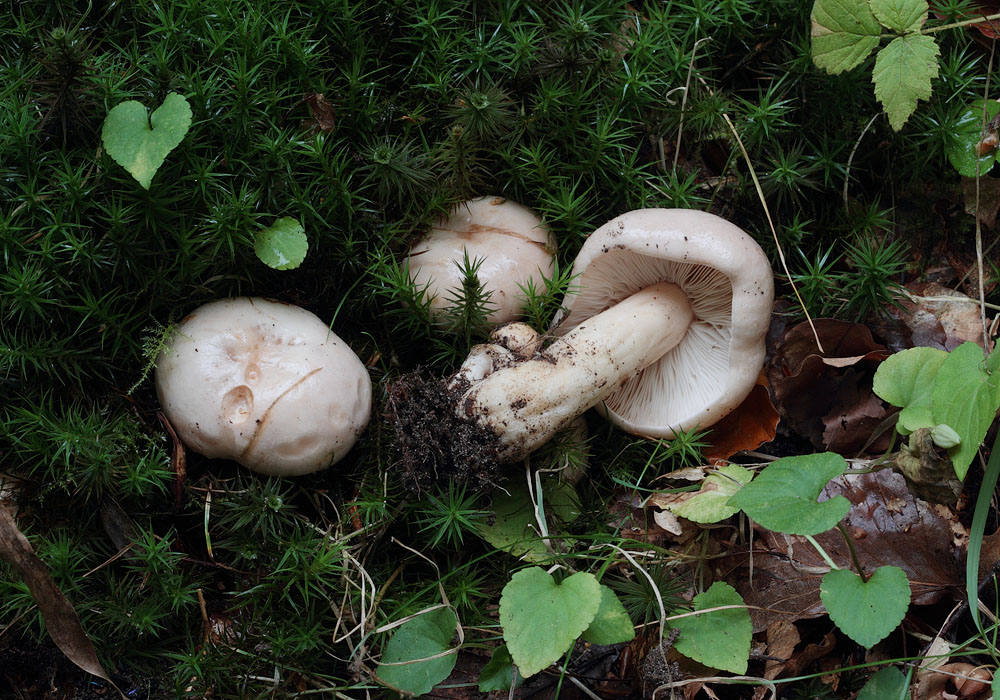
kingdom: Fungi
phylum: Basidiomycota
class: Agaricomycetes
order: Russulales
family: Russulaceae
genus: Lactarius
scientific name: Lactarius pallidus
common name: bleg mælkehat
